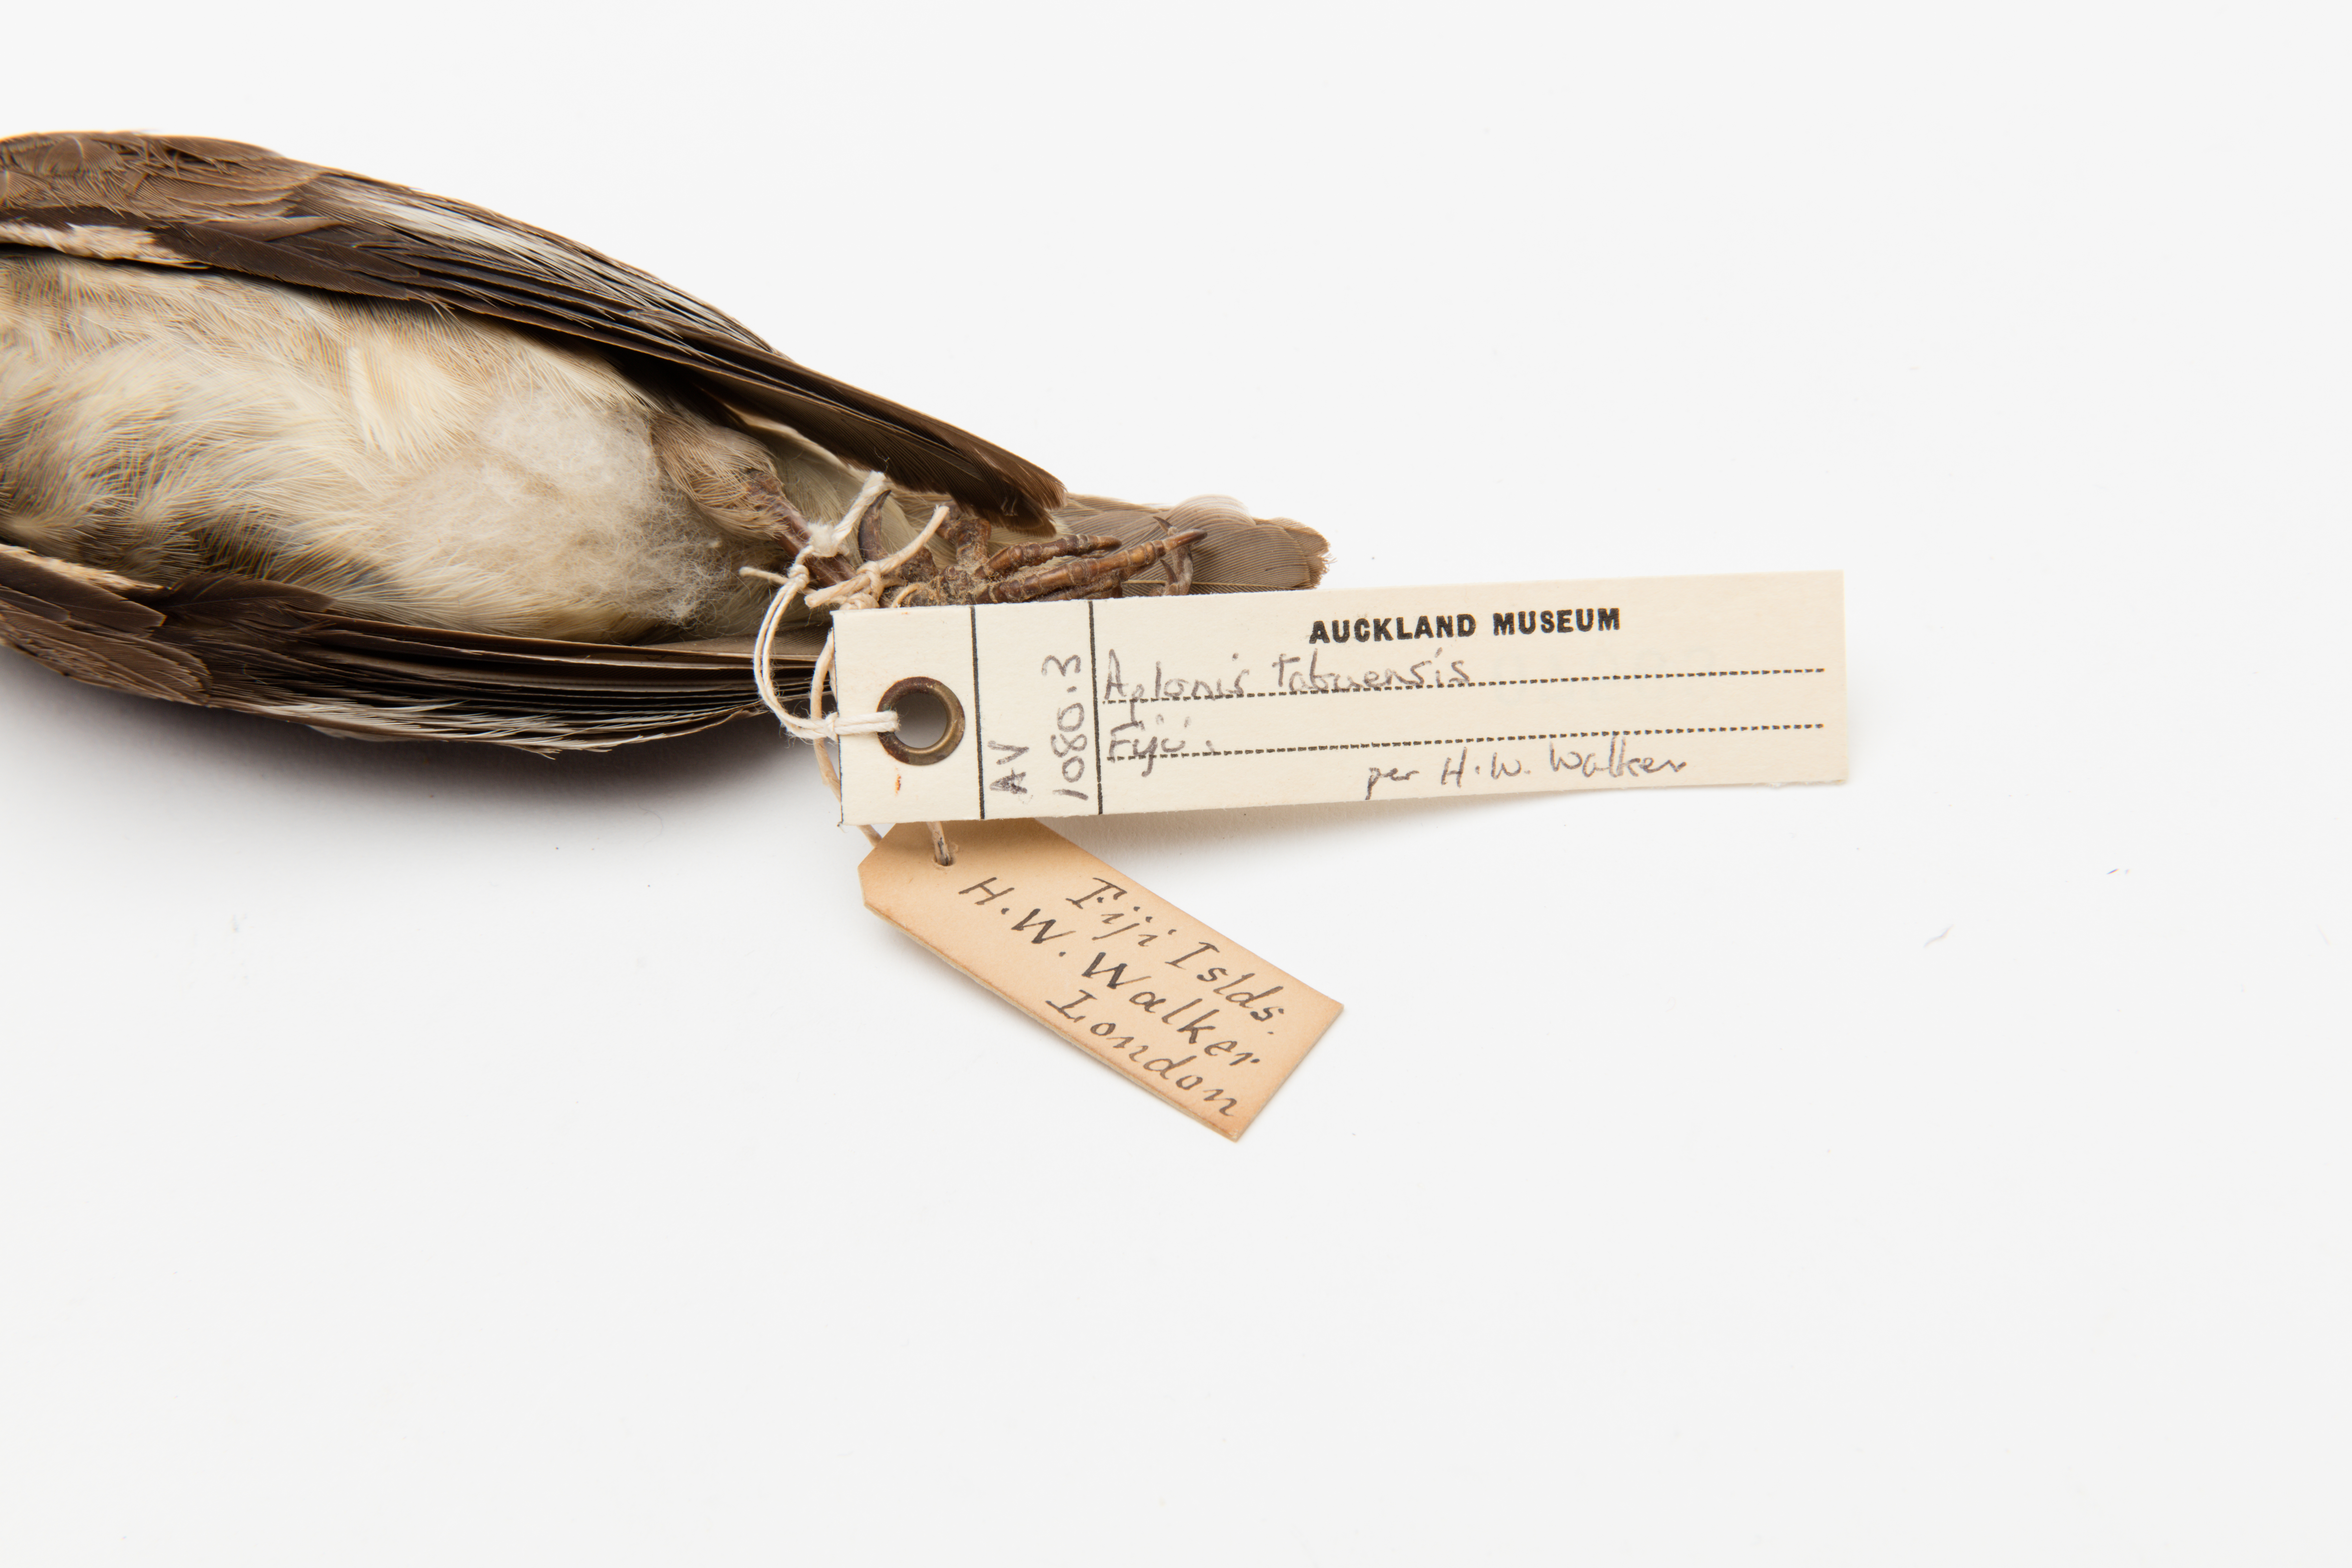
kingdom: Animalia
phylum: Chordata
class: Aves
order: Passeriformes
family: Sturnidae
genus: Aplonis
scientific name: Aplonis tabuensis
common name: Polynesian starling
